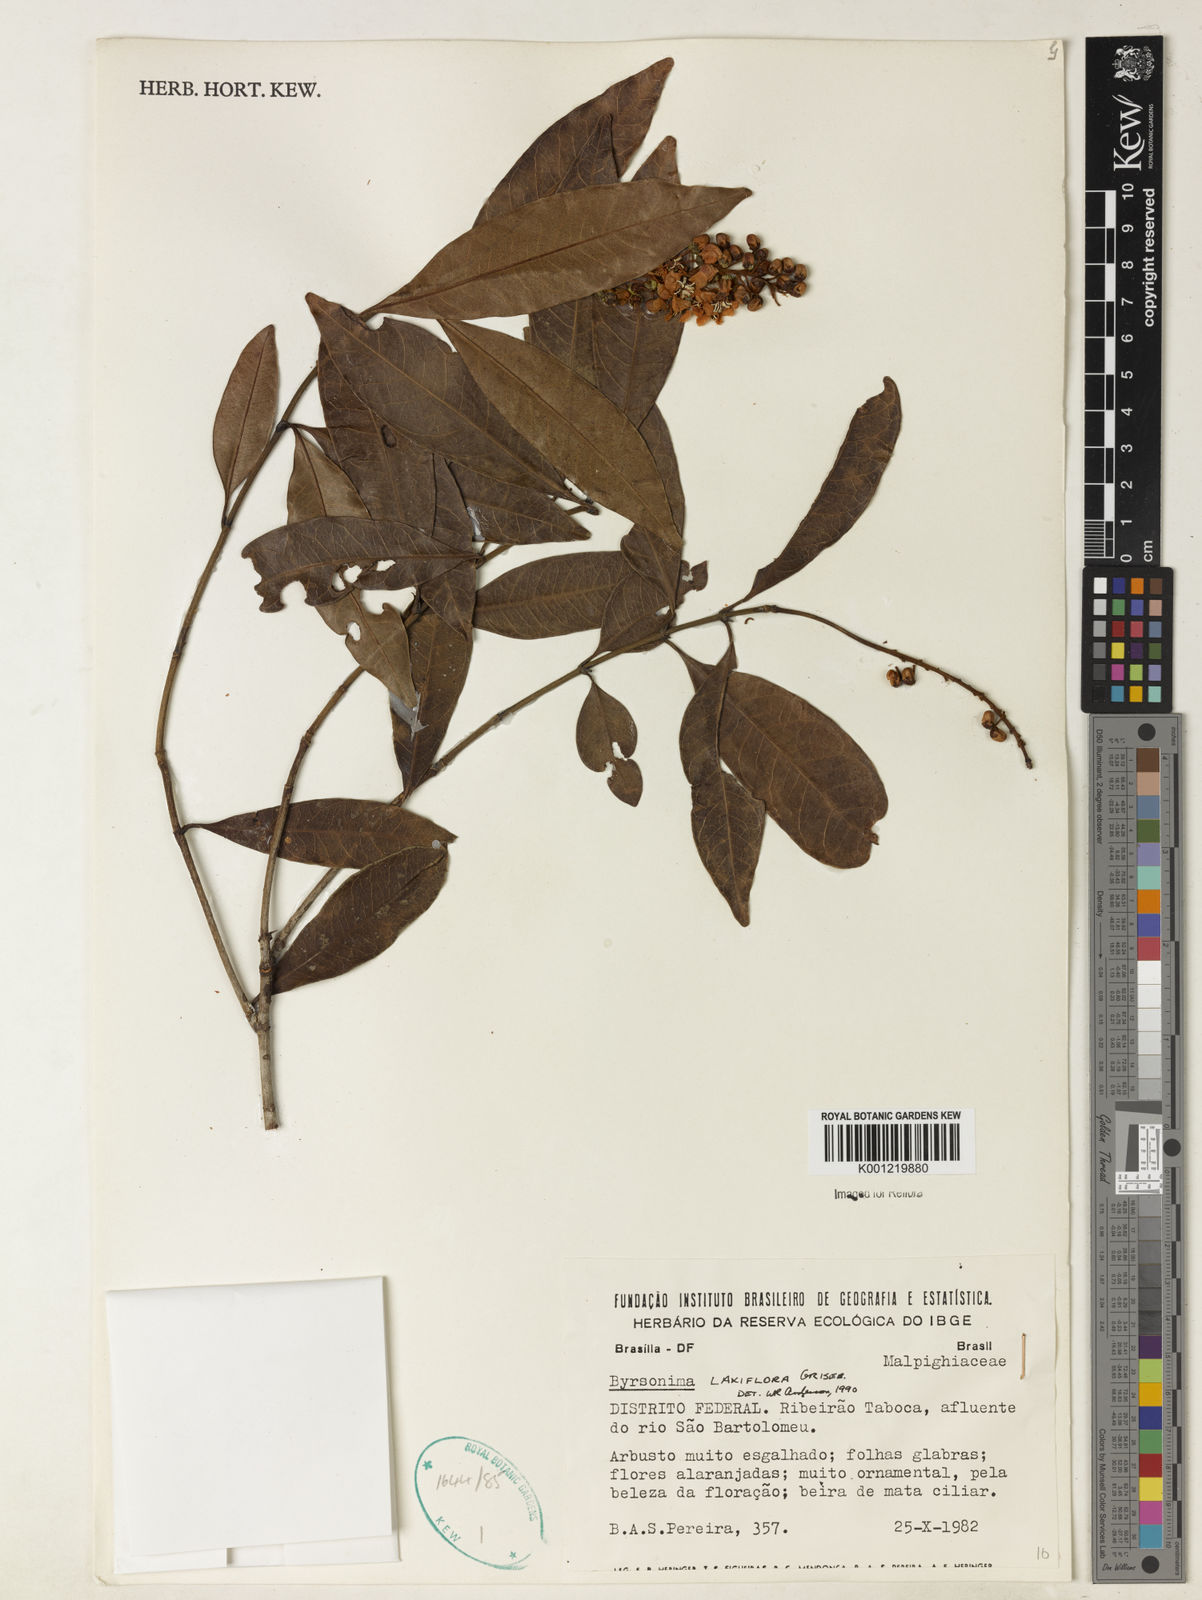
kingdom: Plantae
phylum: Tracheophyta
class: Magnoliopsida
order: Malpighiales
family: Malpighiaceae
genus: Byrsonima
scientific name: Byrsonima laxiflora
